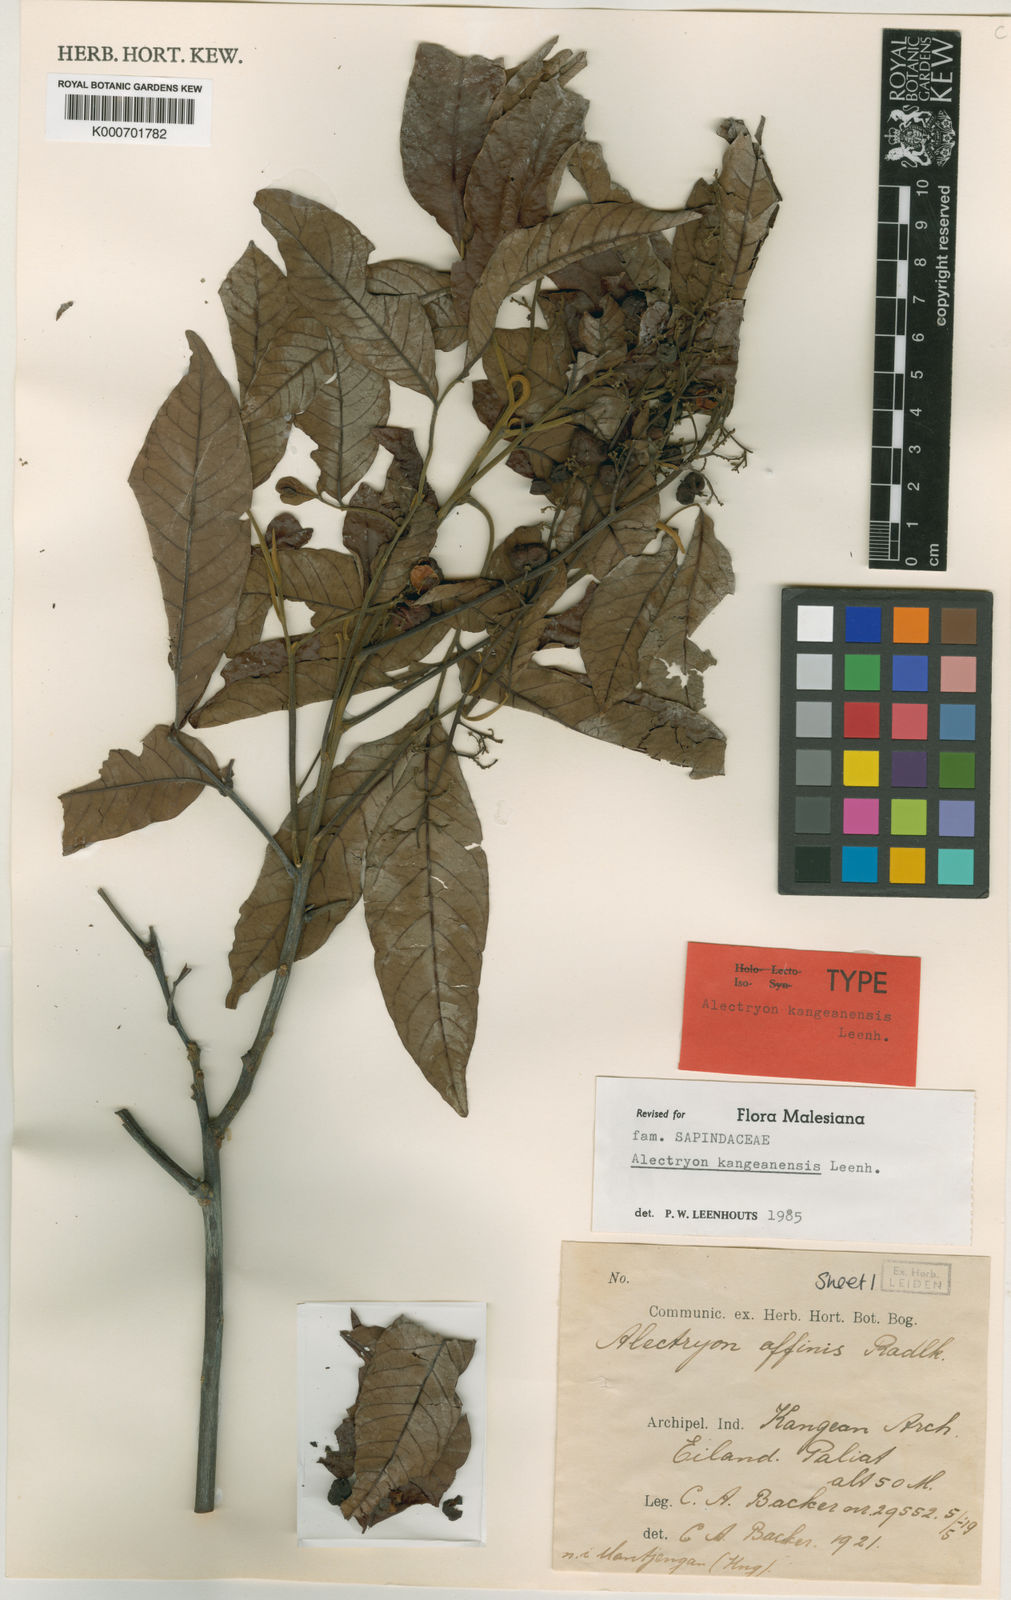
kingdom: Plantae
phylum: Tracheophyta
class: Magnoliopsida
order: Sapindales
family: Sapindaceae
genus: Alectryon
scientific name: Alectryon kangeanensis
